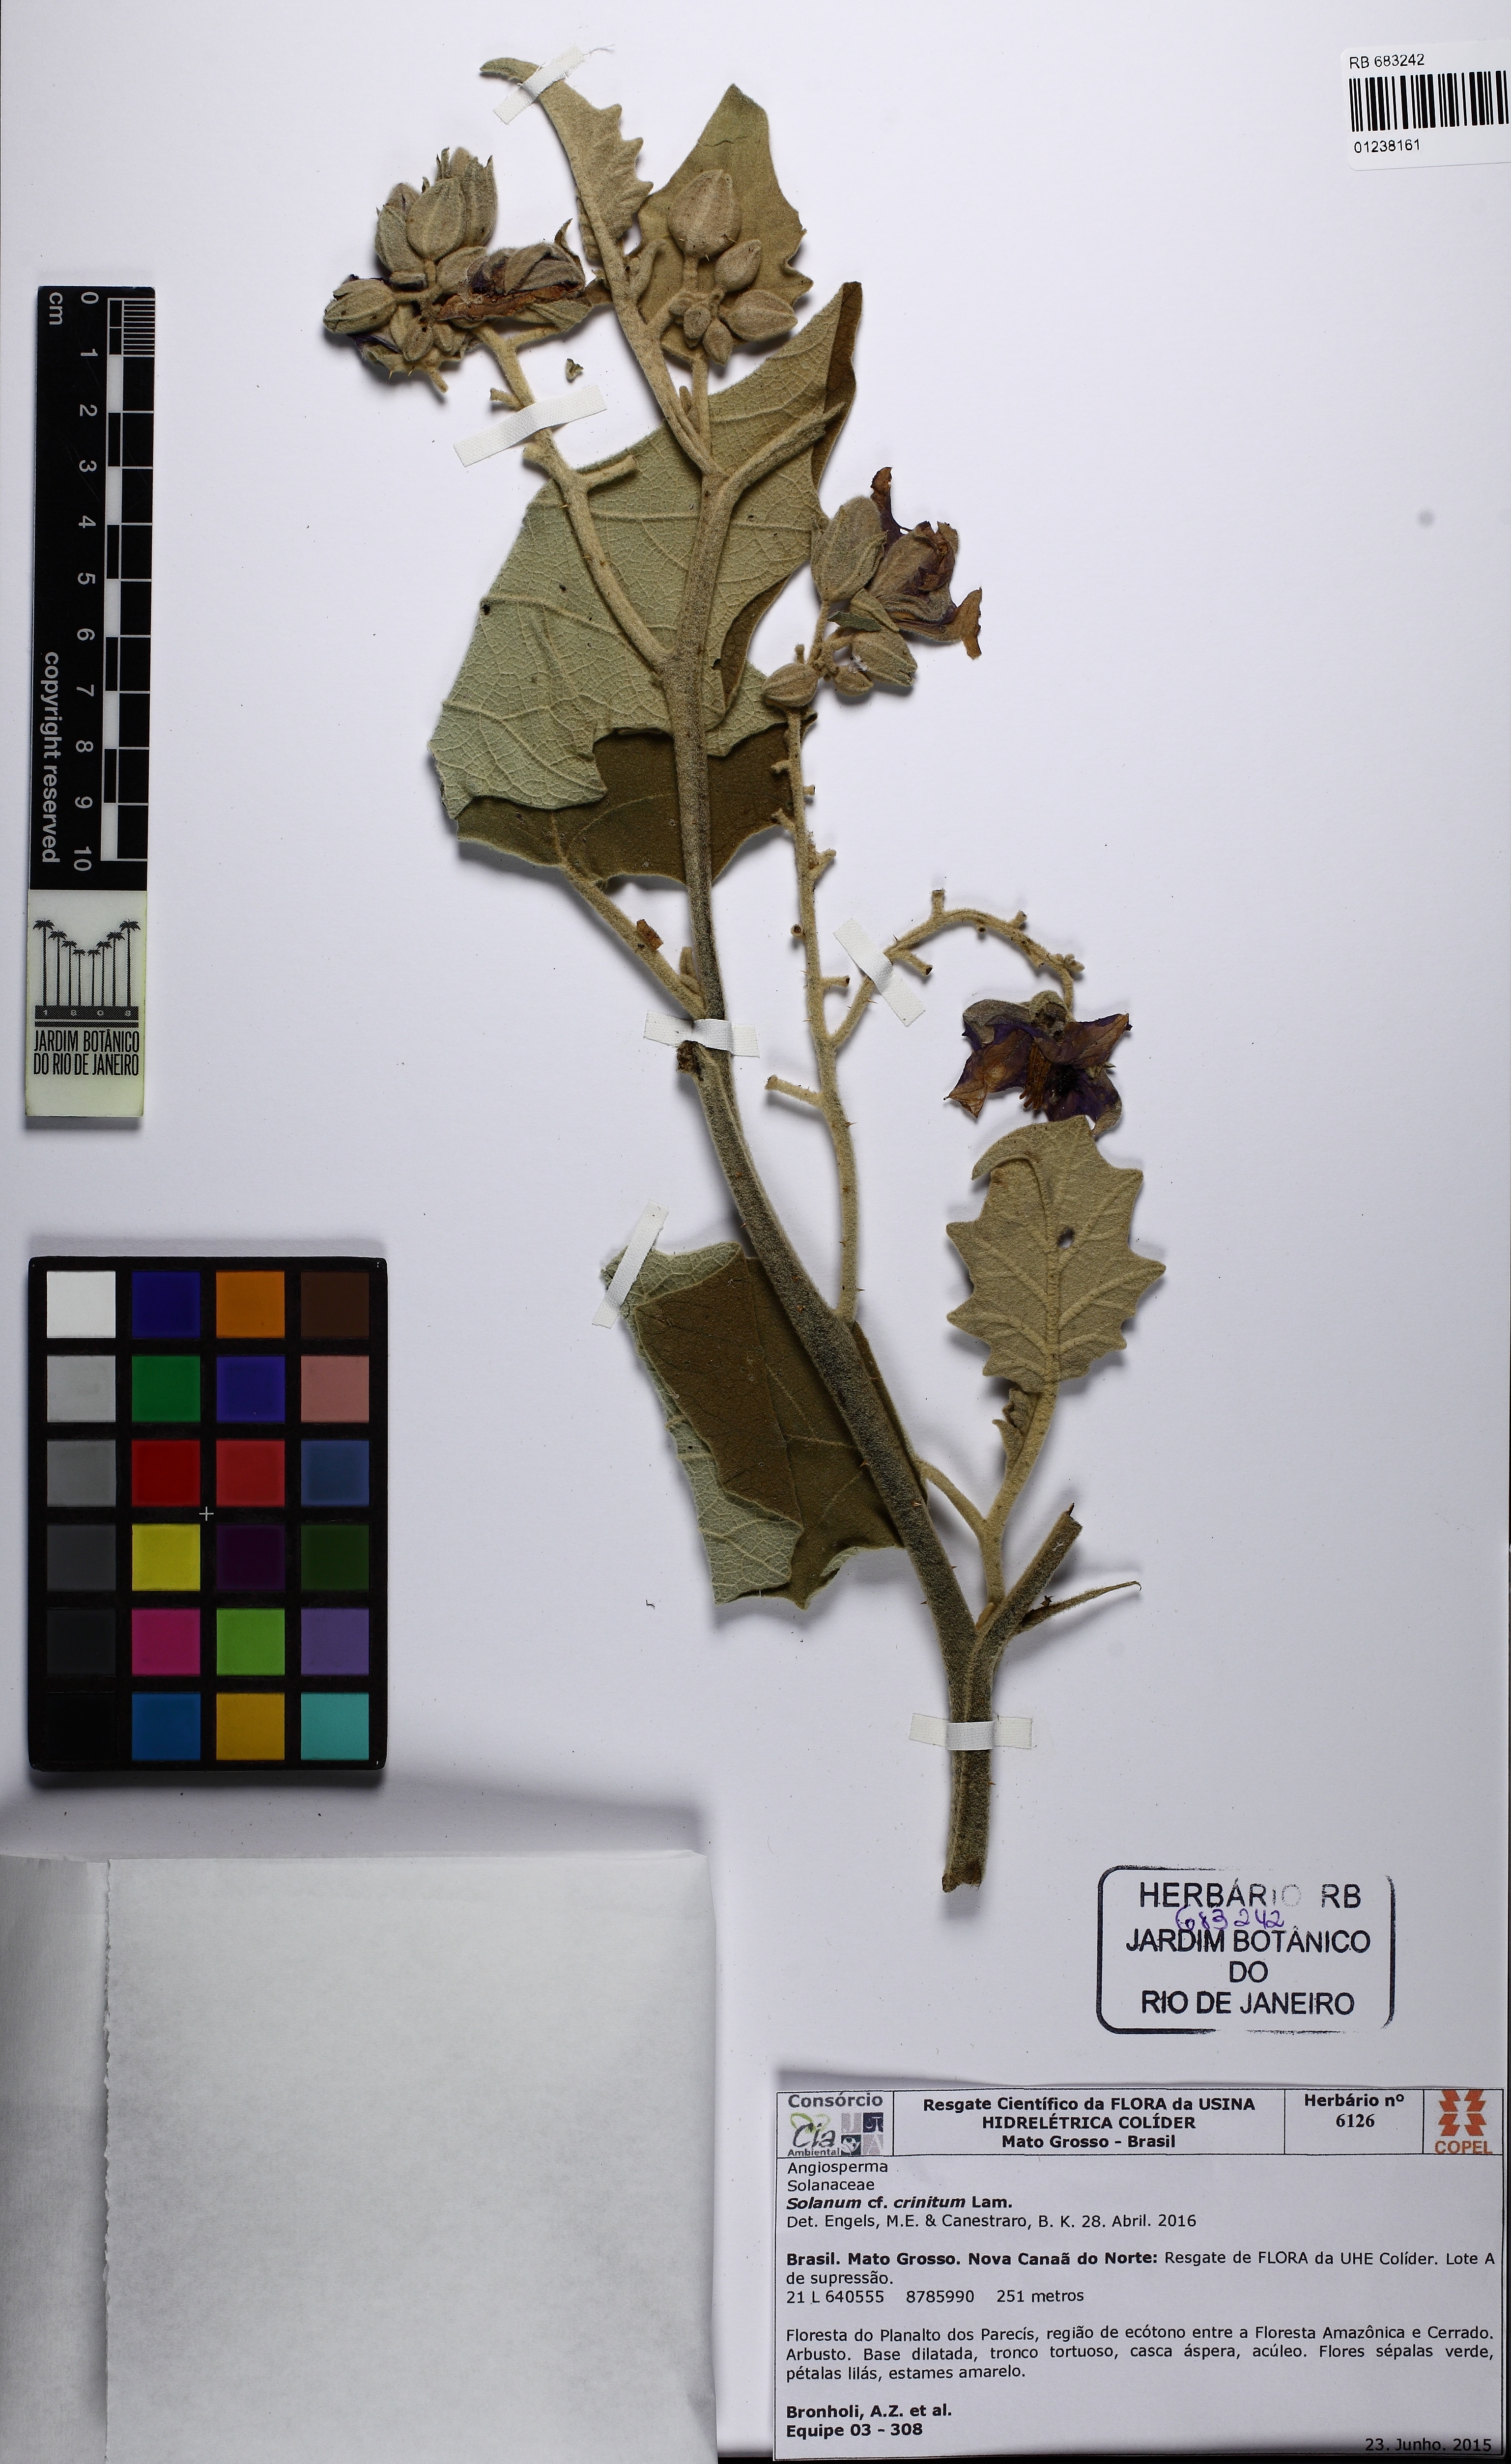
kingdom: Plantae
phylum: Tracheophyta
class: Magnoliopsida
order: Solanales
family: Solanaceae
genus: Solanum
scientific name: Solanum crinitum
